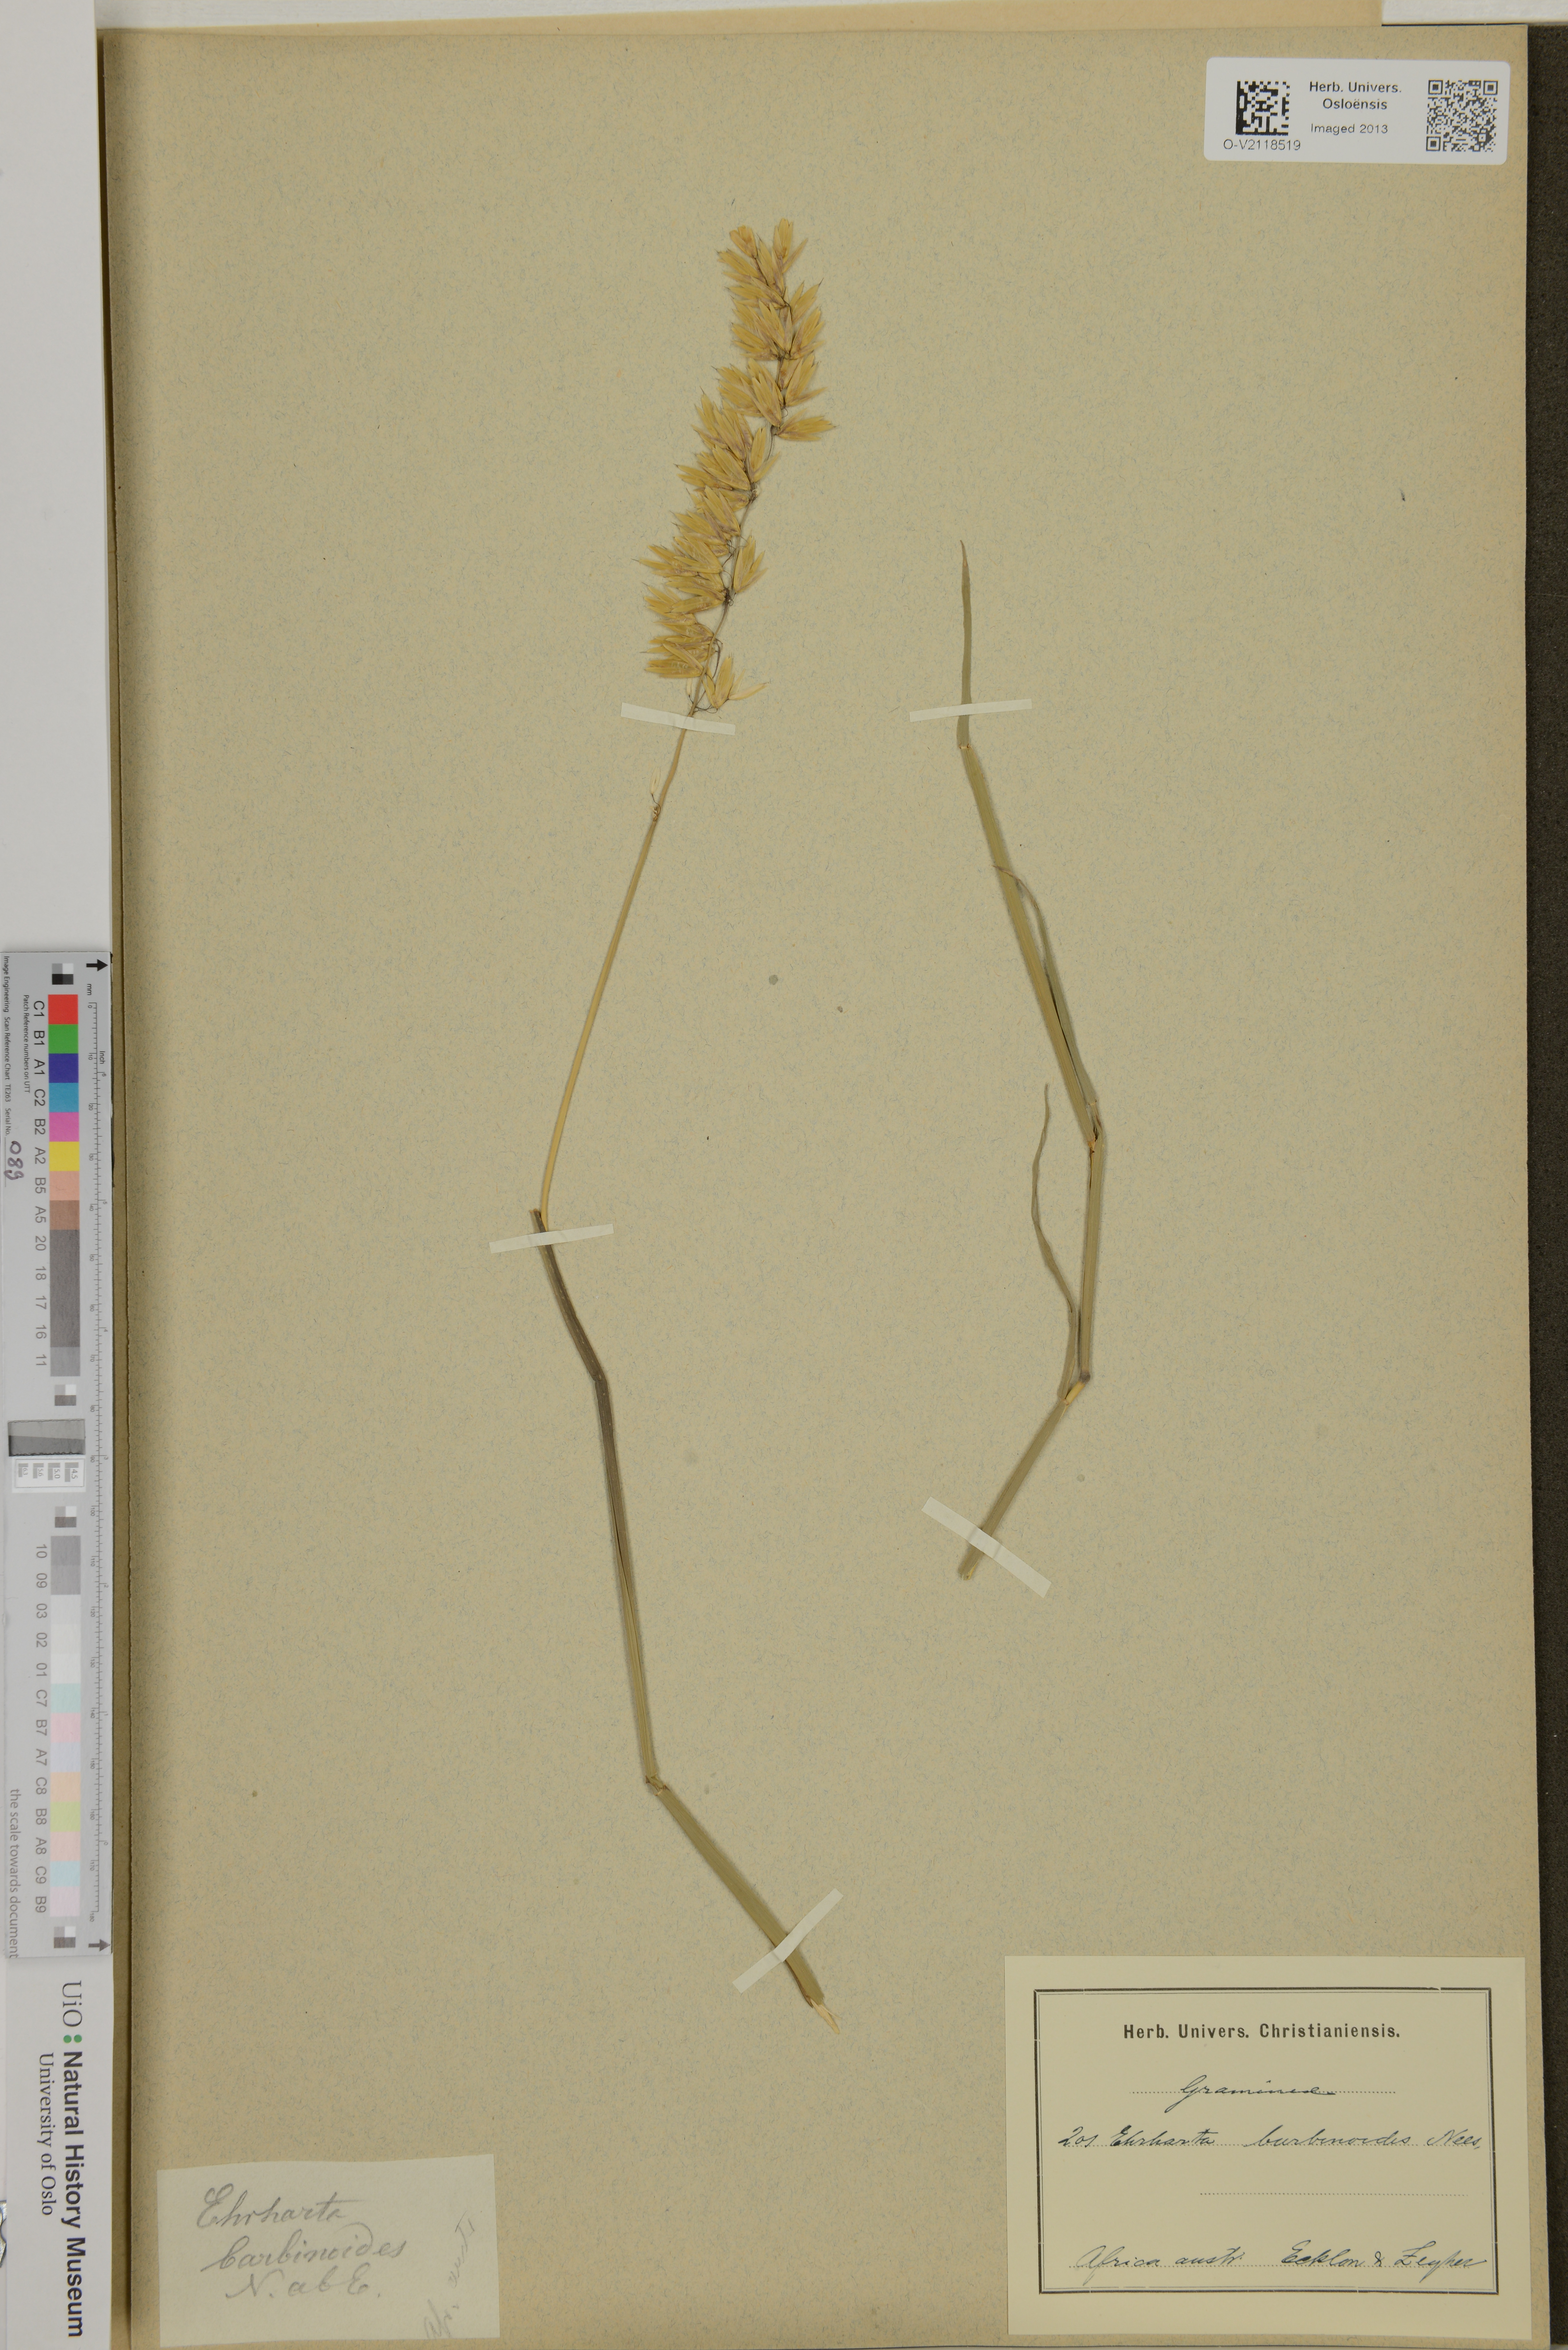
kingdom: Plantae
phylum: Tracheophyta
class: Liliopsida
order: Poales
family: Poaceae
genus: Ehrharta
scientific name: Ehrharta barbinodis
